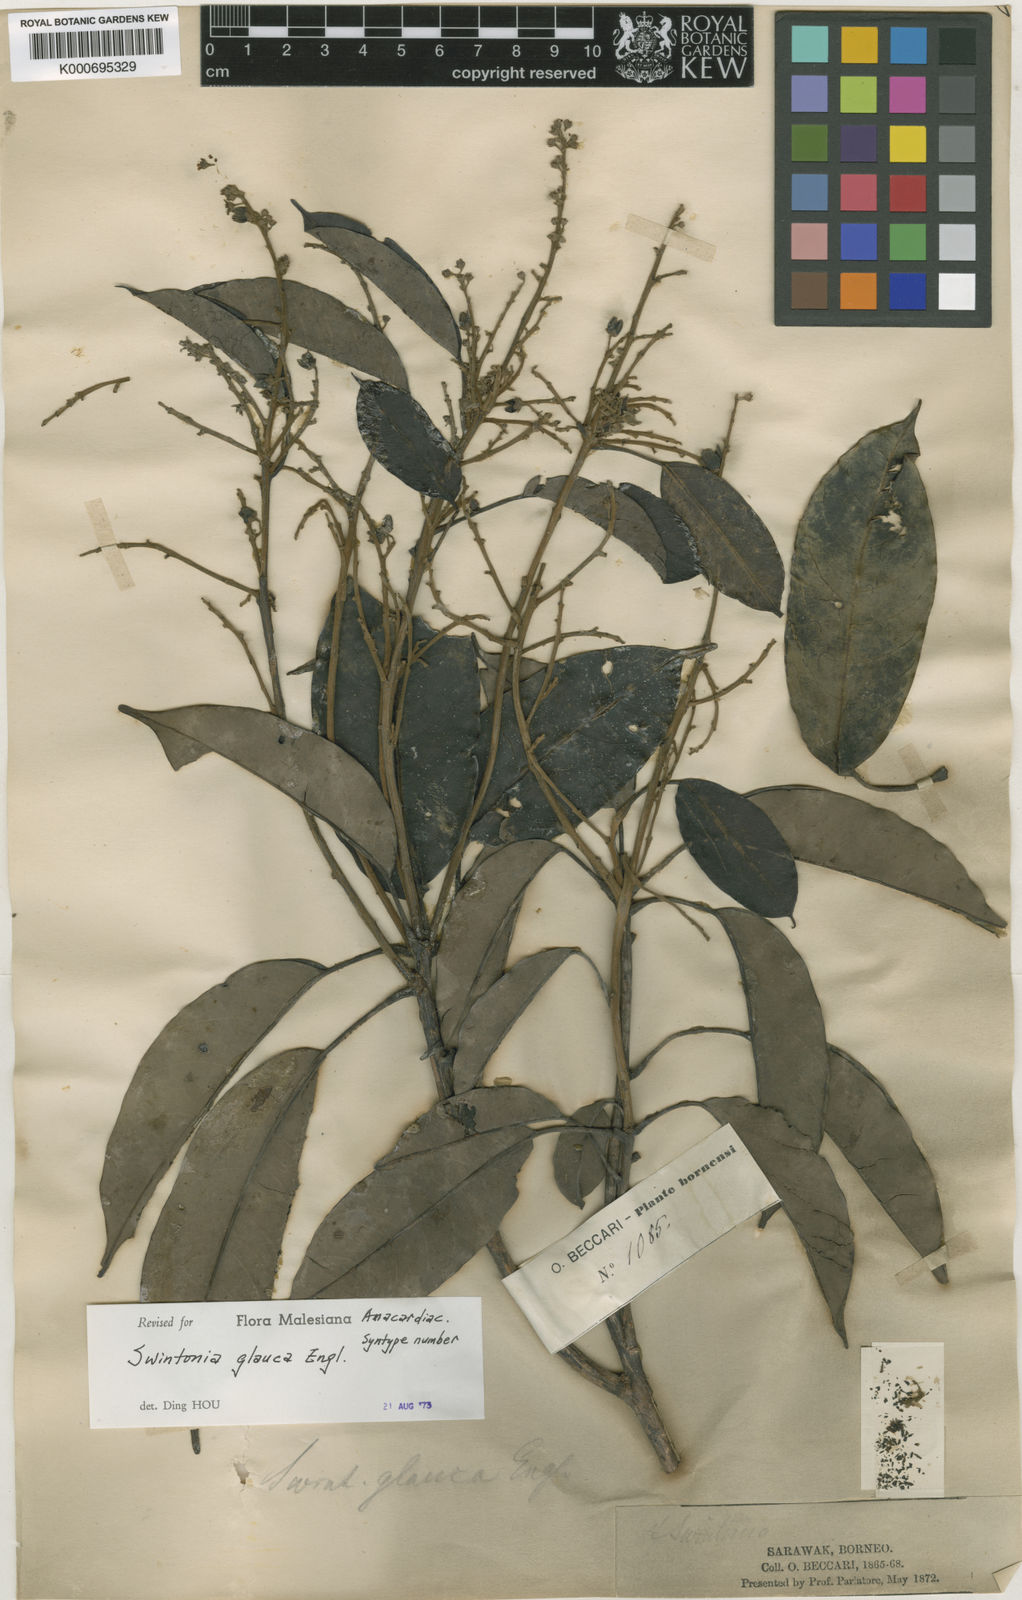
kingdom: Plantae
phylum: Tracheophyta
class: Magnoliopsida
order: Sapindales
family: Anacardiaceae
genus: Swintonia
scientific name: Swintonia glauca
